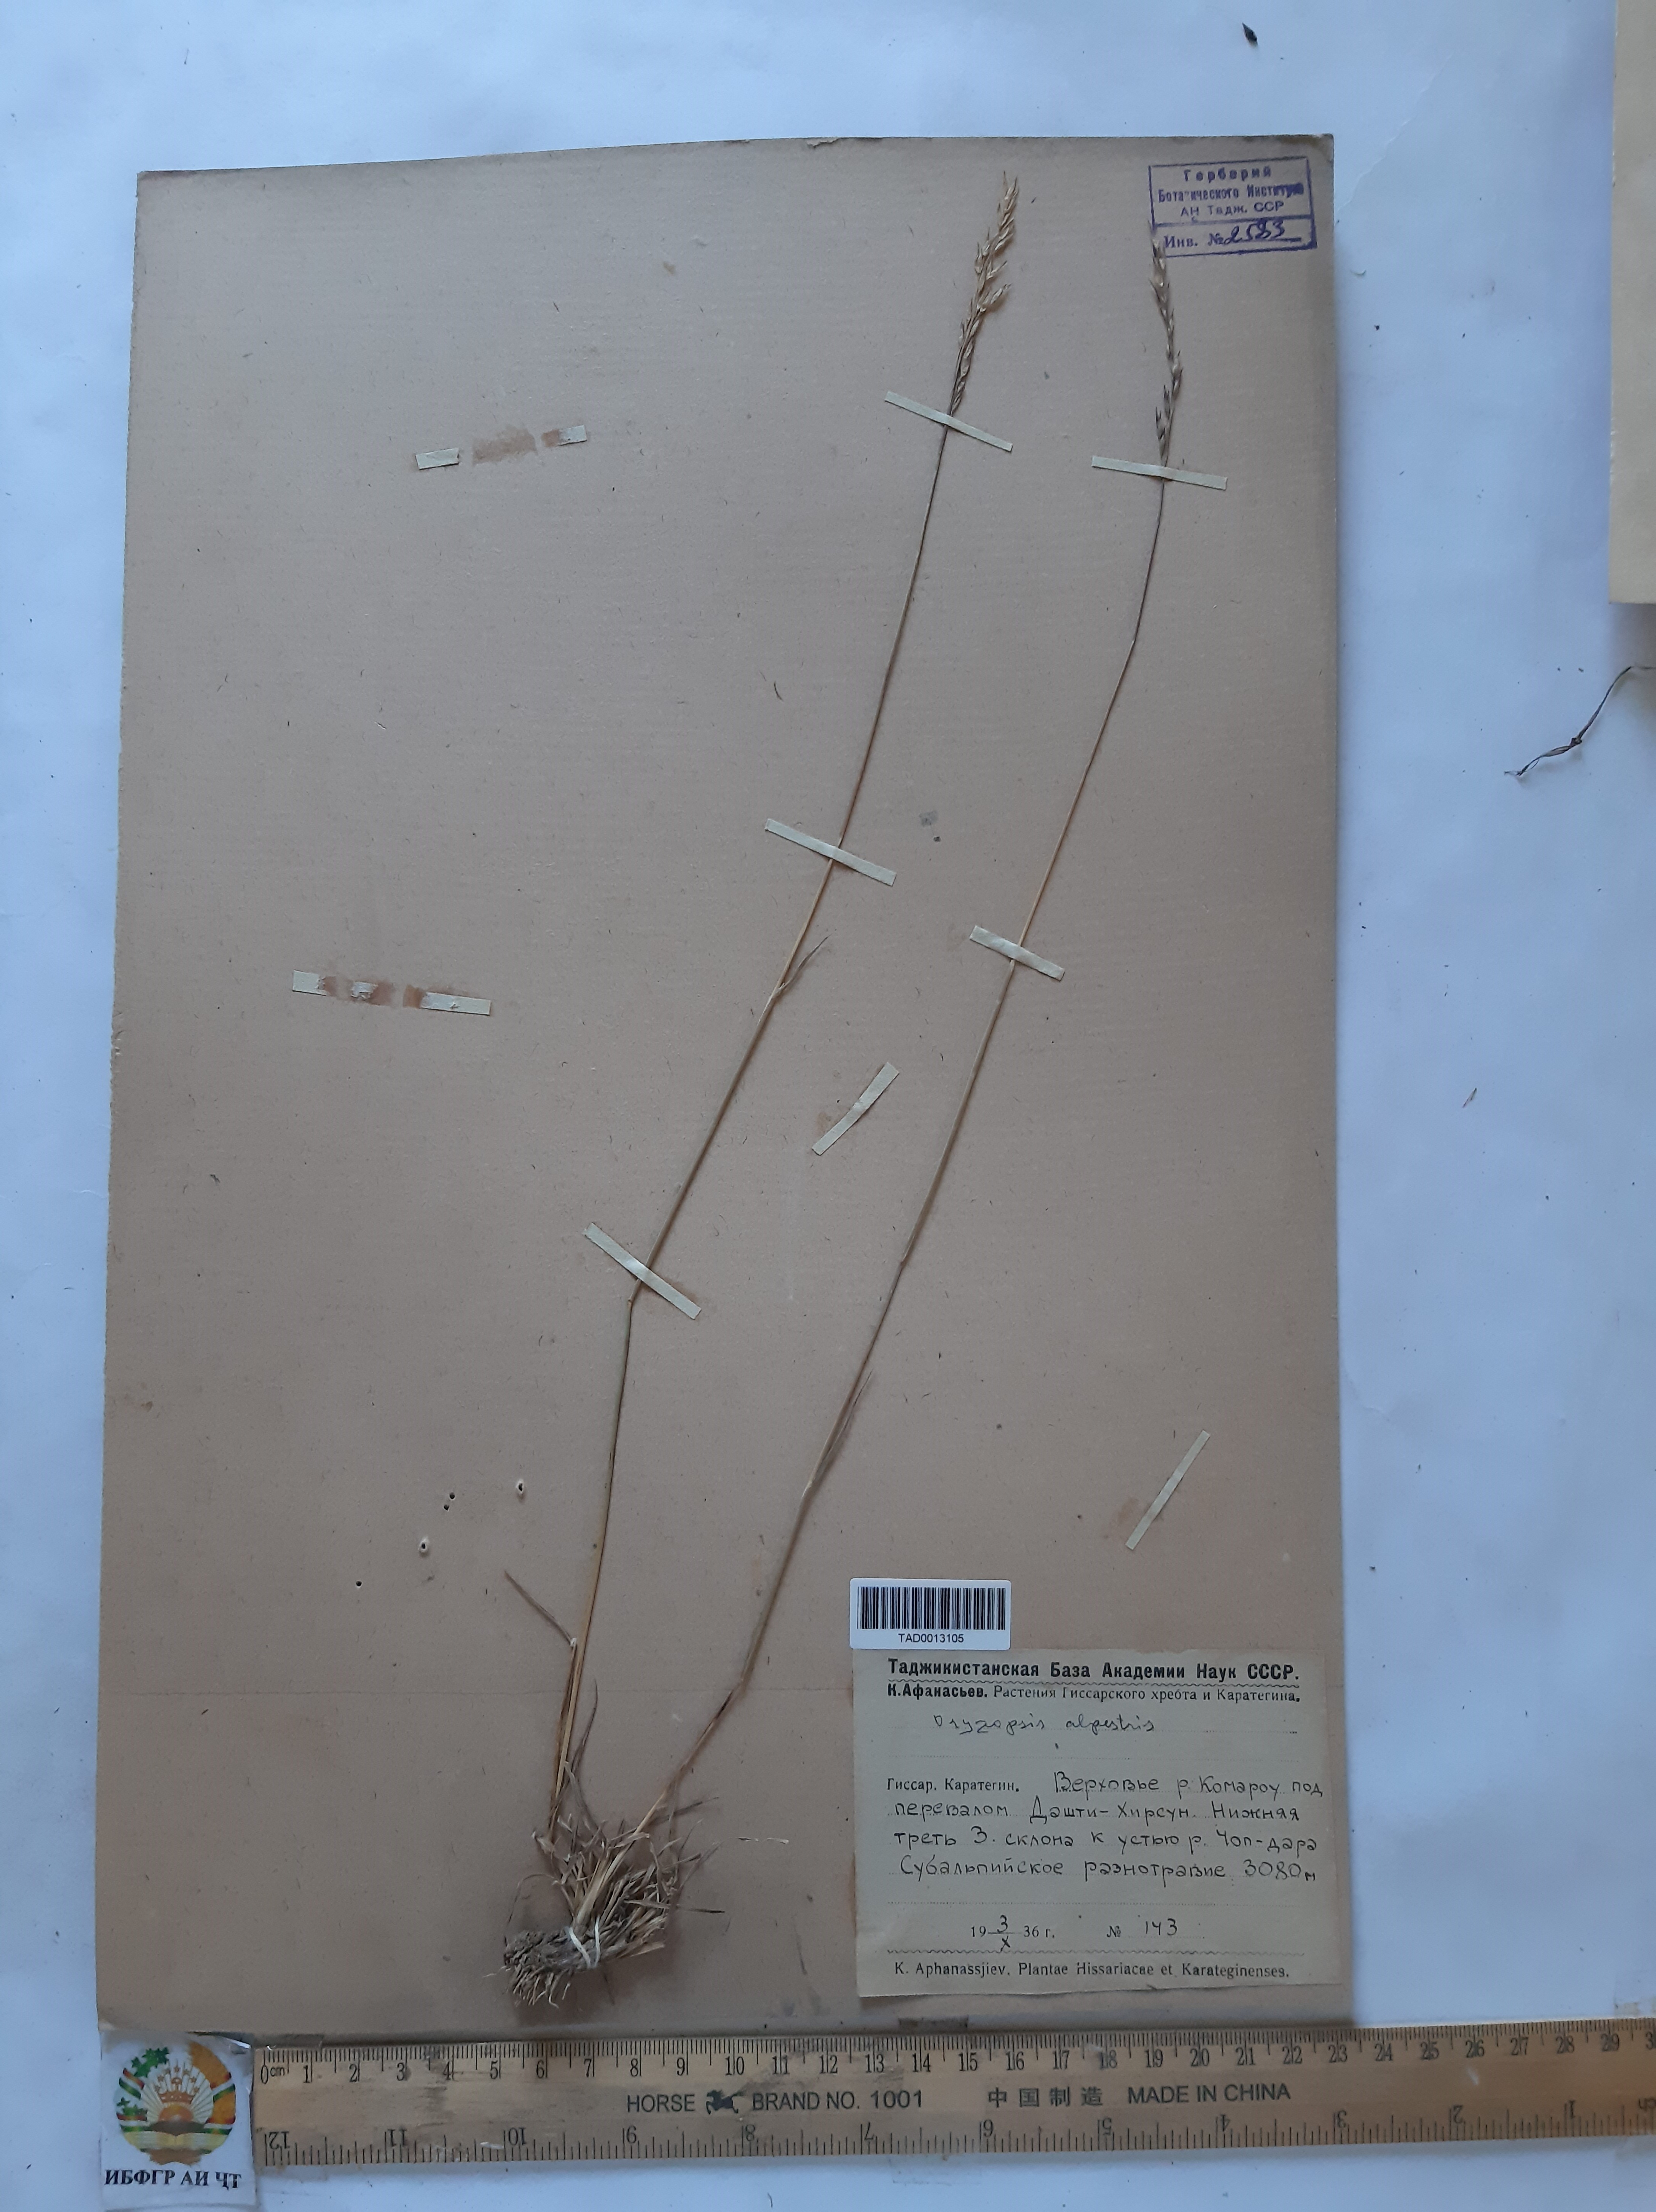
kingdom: Plantae
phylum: Tracheophyta
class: Liliopsida
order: Poales
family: Poaceae
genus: Piptatherum
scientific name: Piptatherum alpestre
